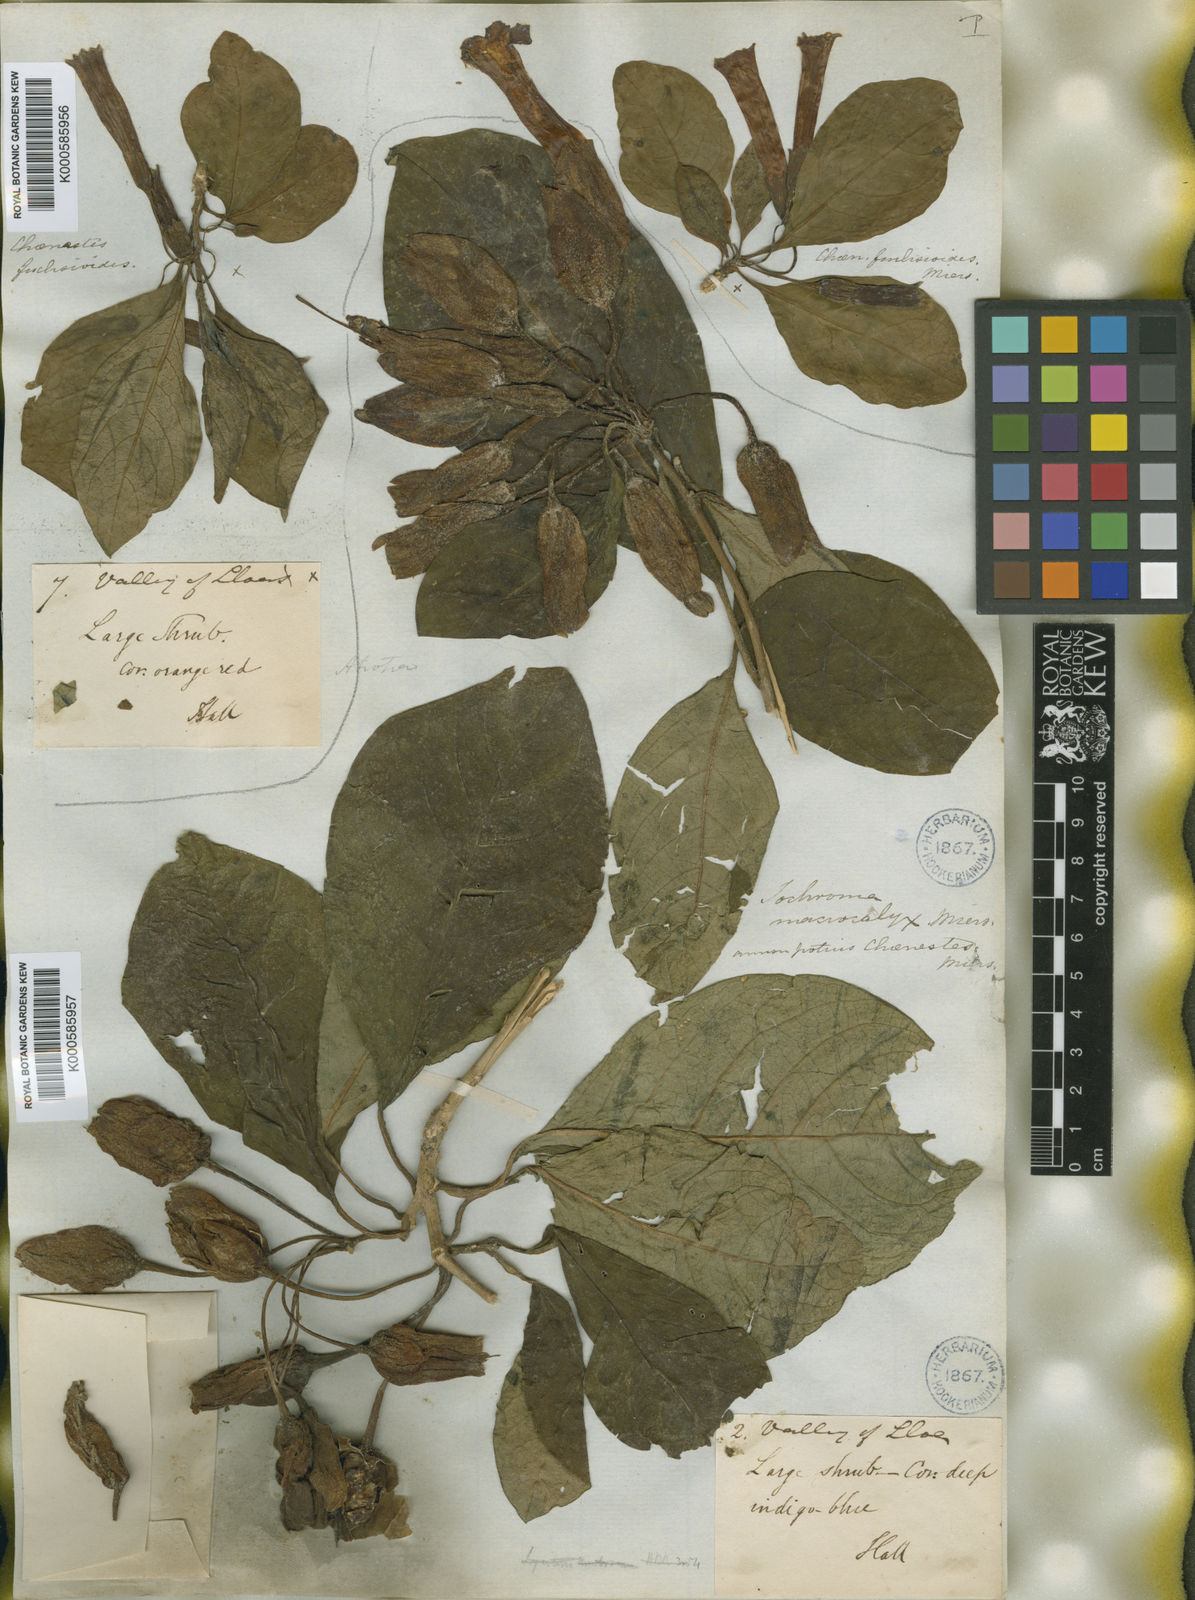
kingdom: Plantae
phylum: Tracheophyta
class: Magnoliopsida
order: Solanales
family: Solanaceae
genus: Iochroma
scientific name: Iochroma calycinum
